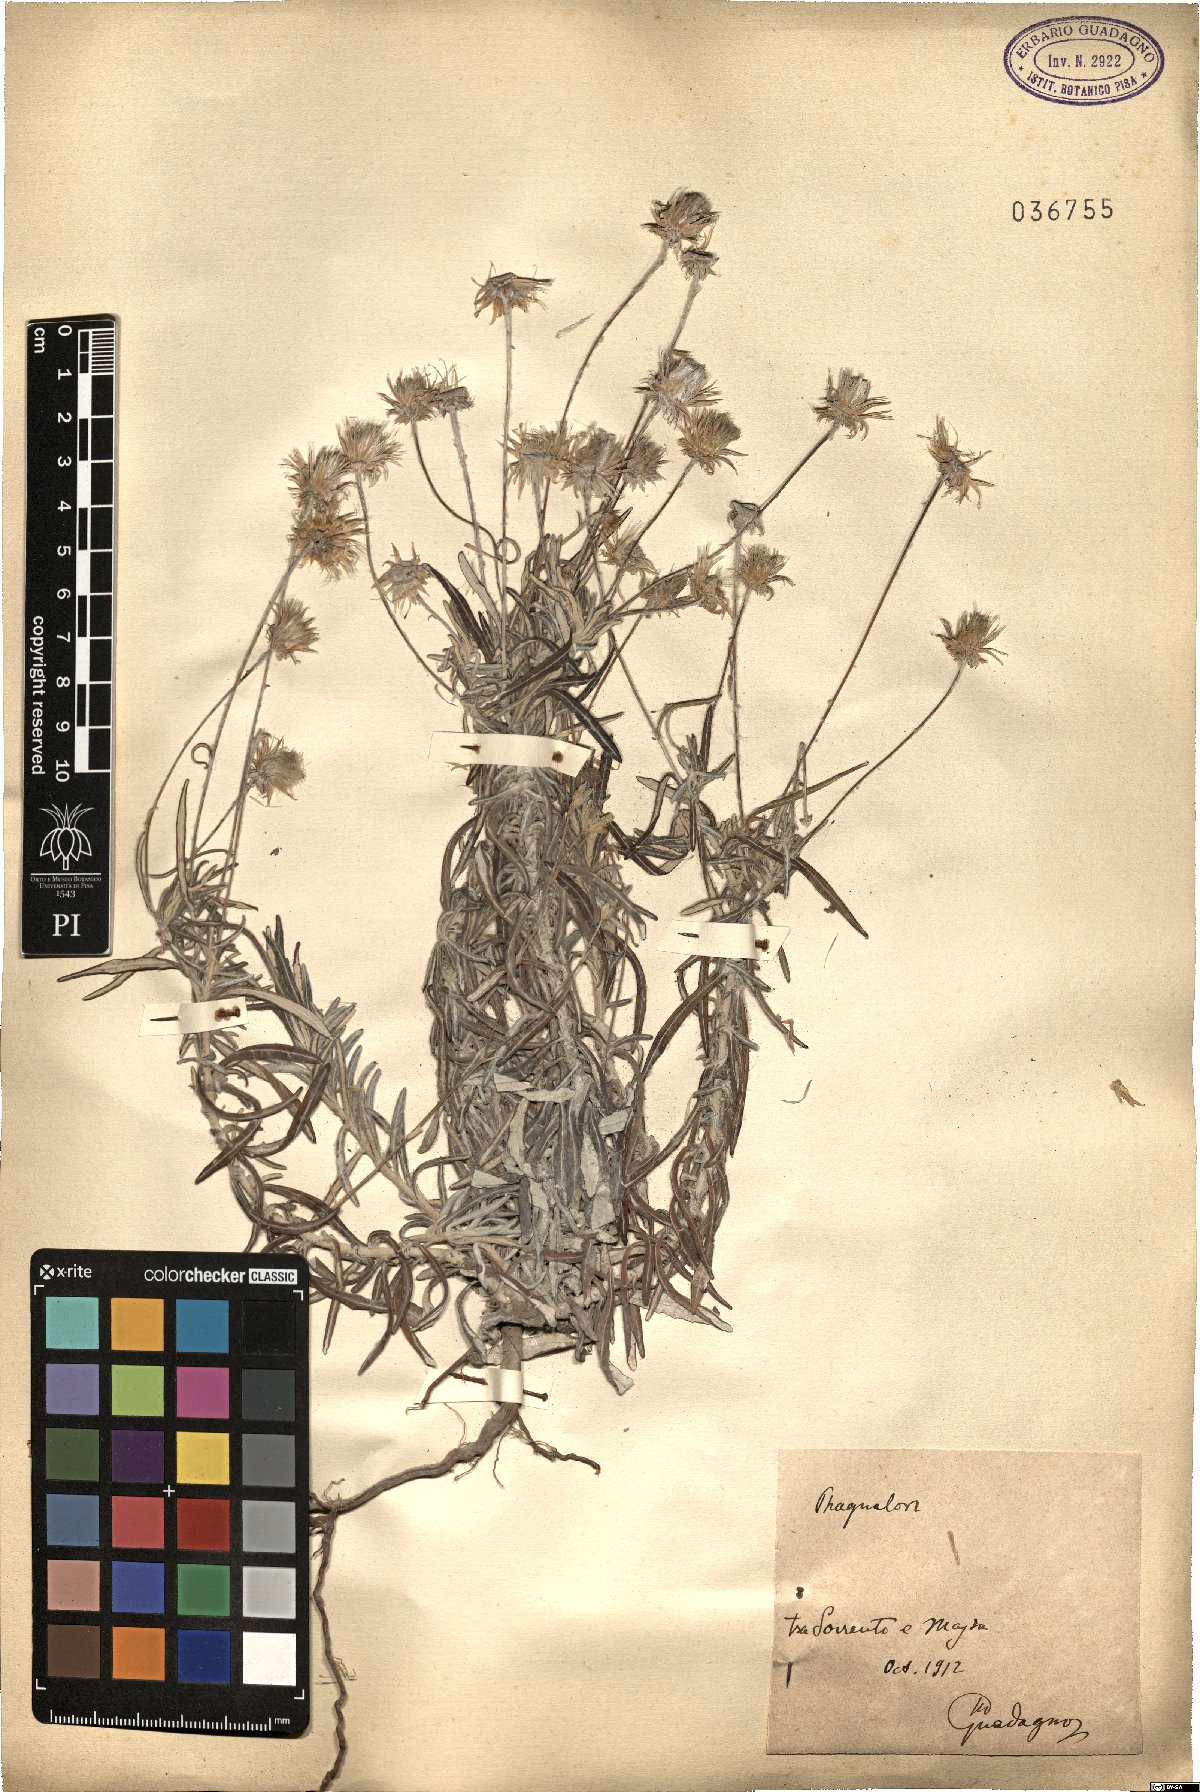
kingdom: Plantae
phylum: Tracheophyta
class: Magnoliopsida
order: Asterales
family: Asteraceae
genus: Phagnalon
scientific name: Phagnalon
